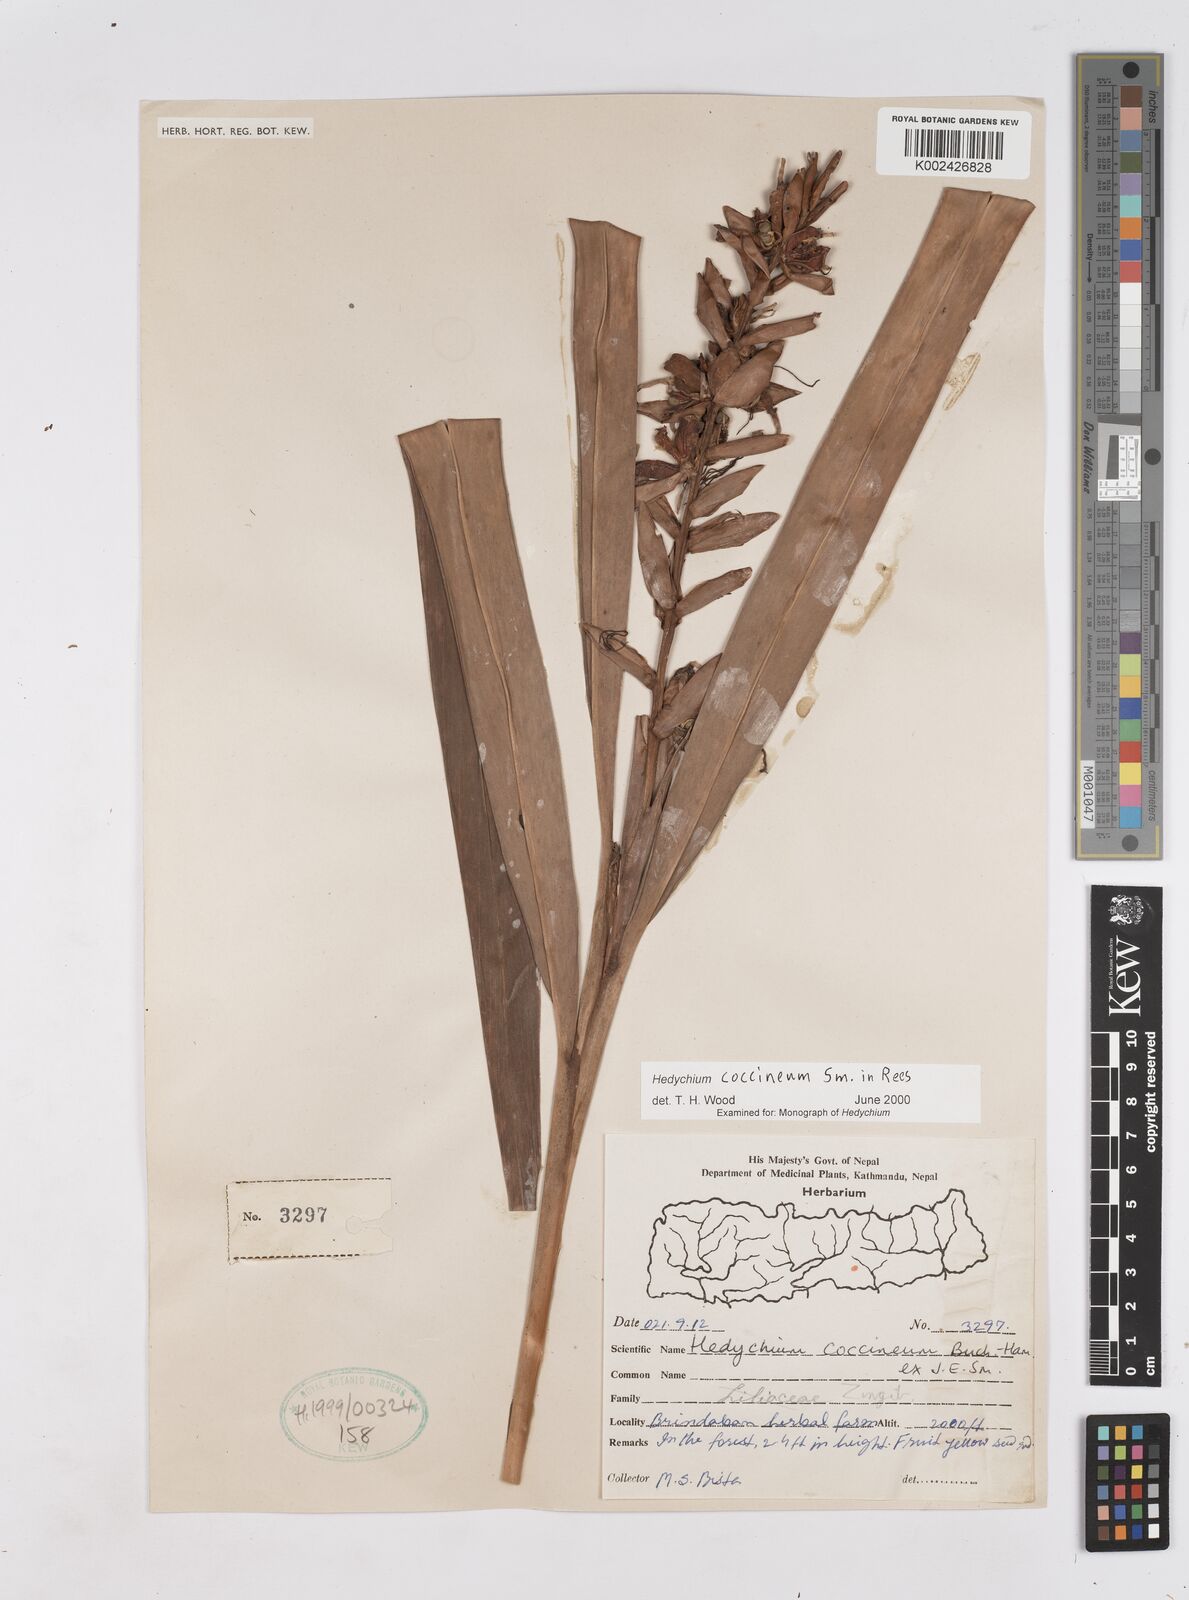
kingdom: Plantae
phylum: Tracheophyta
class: Liliopsida
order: Zingiberales
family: Zingiberaceae
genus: Hedychium
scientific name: Hedychium coccineum
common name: Red ginger-lily
